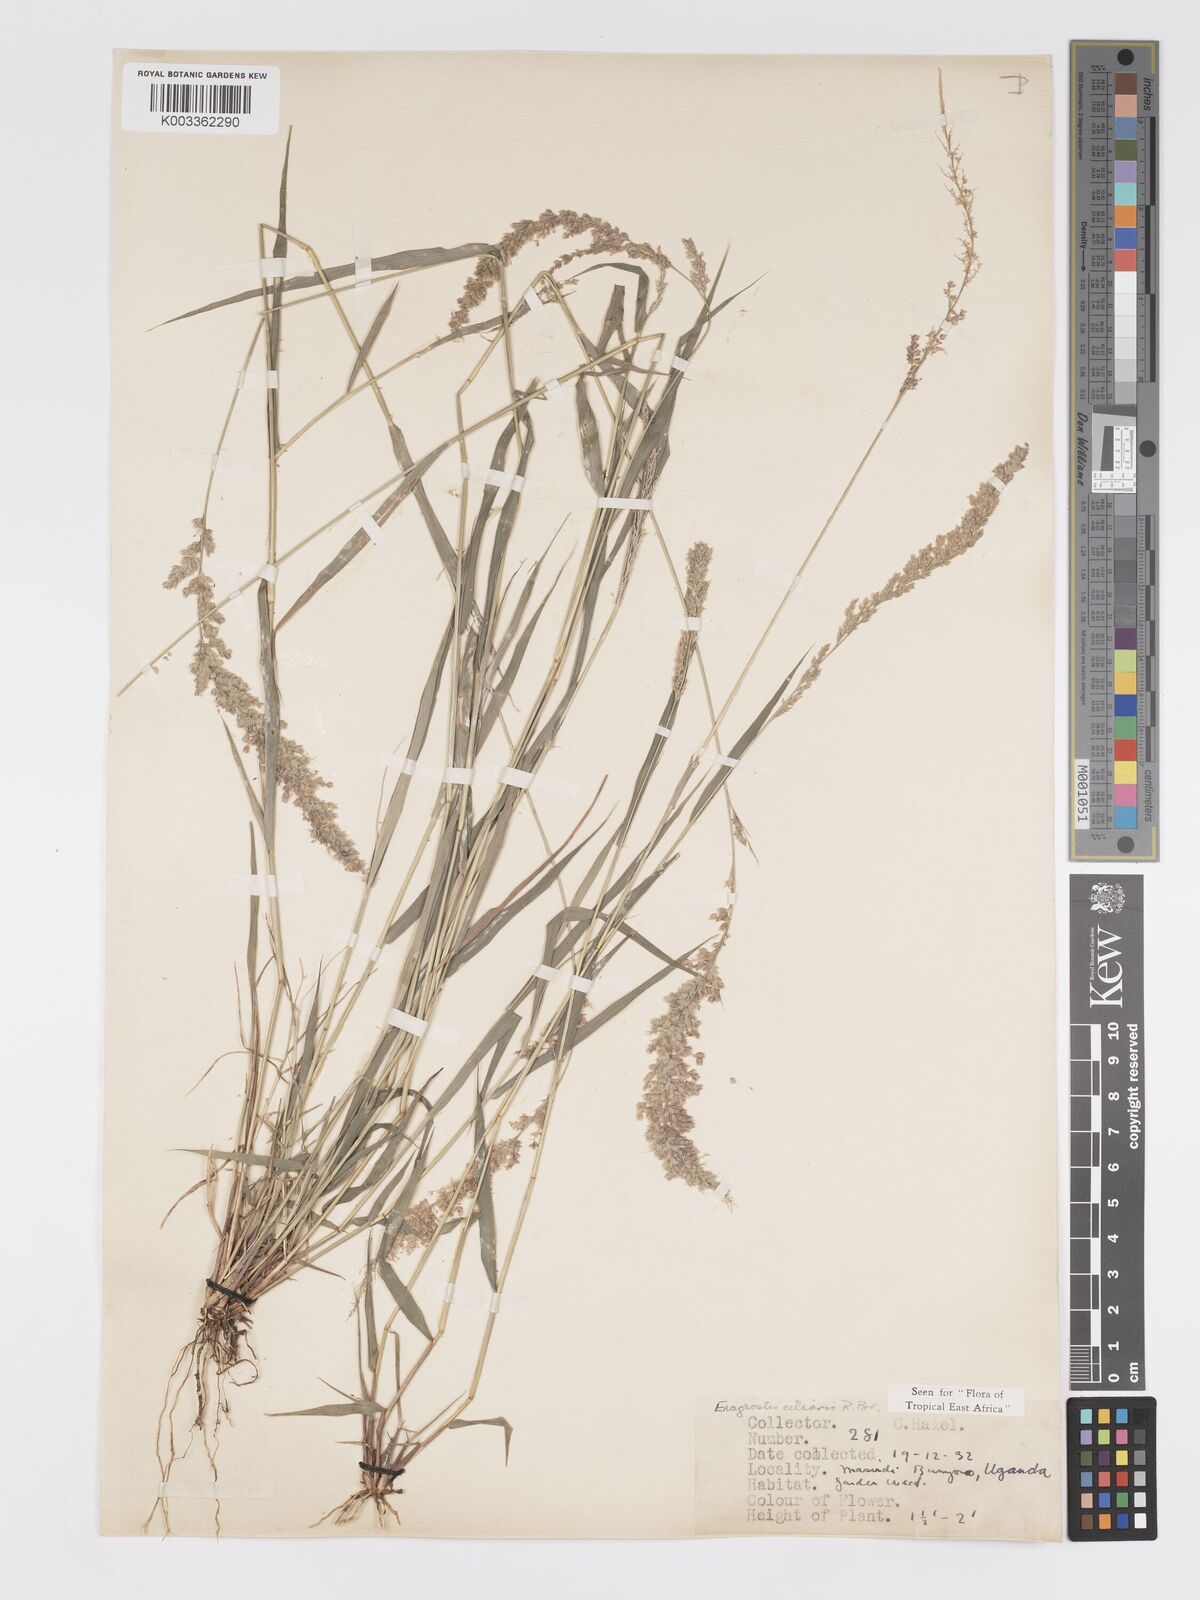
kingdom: Plantae
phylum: Tracheophyta
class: Liliopsida
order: Poales
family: Poaceae
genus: Eragrostis
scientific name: Eragrostis ciliaris
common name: Gophertail lovegrass
